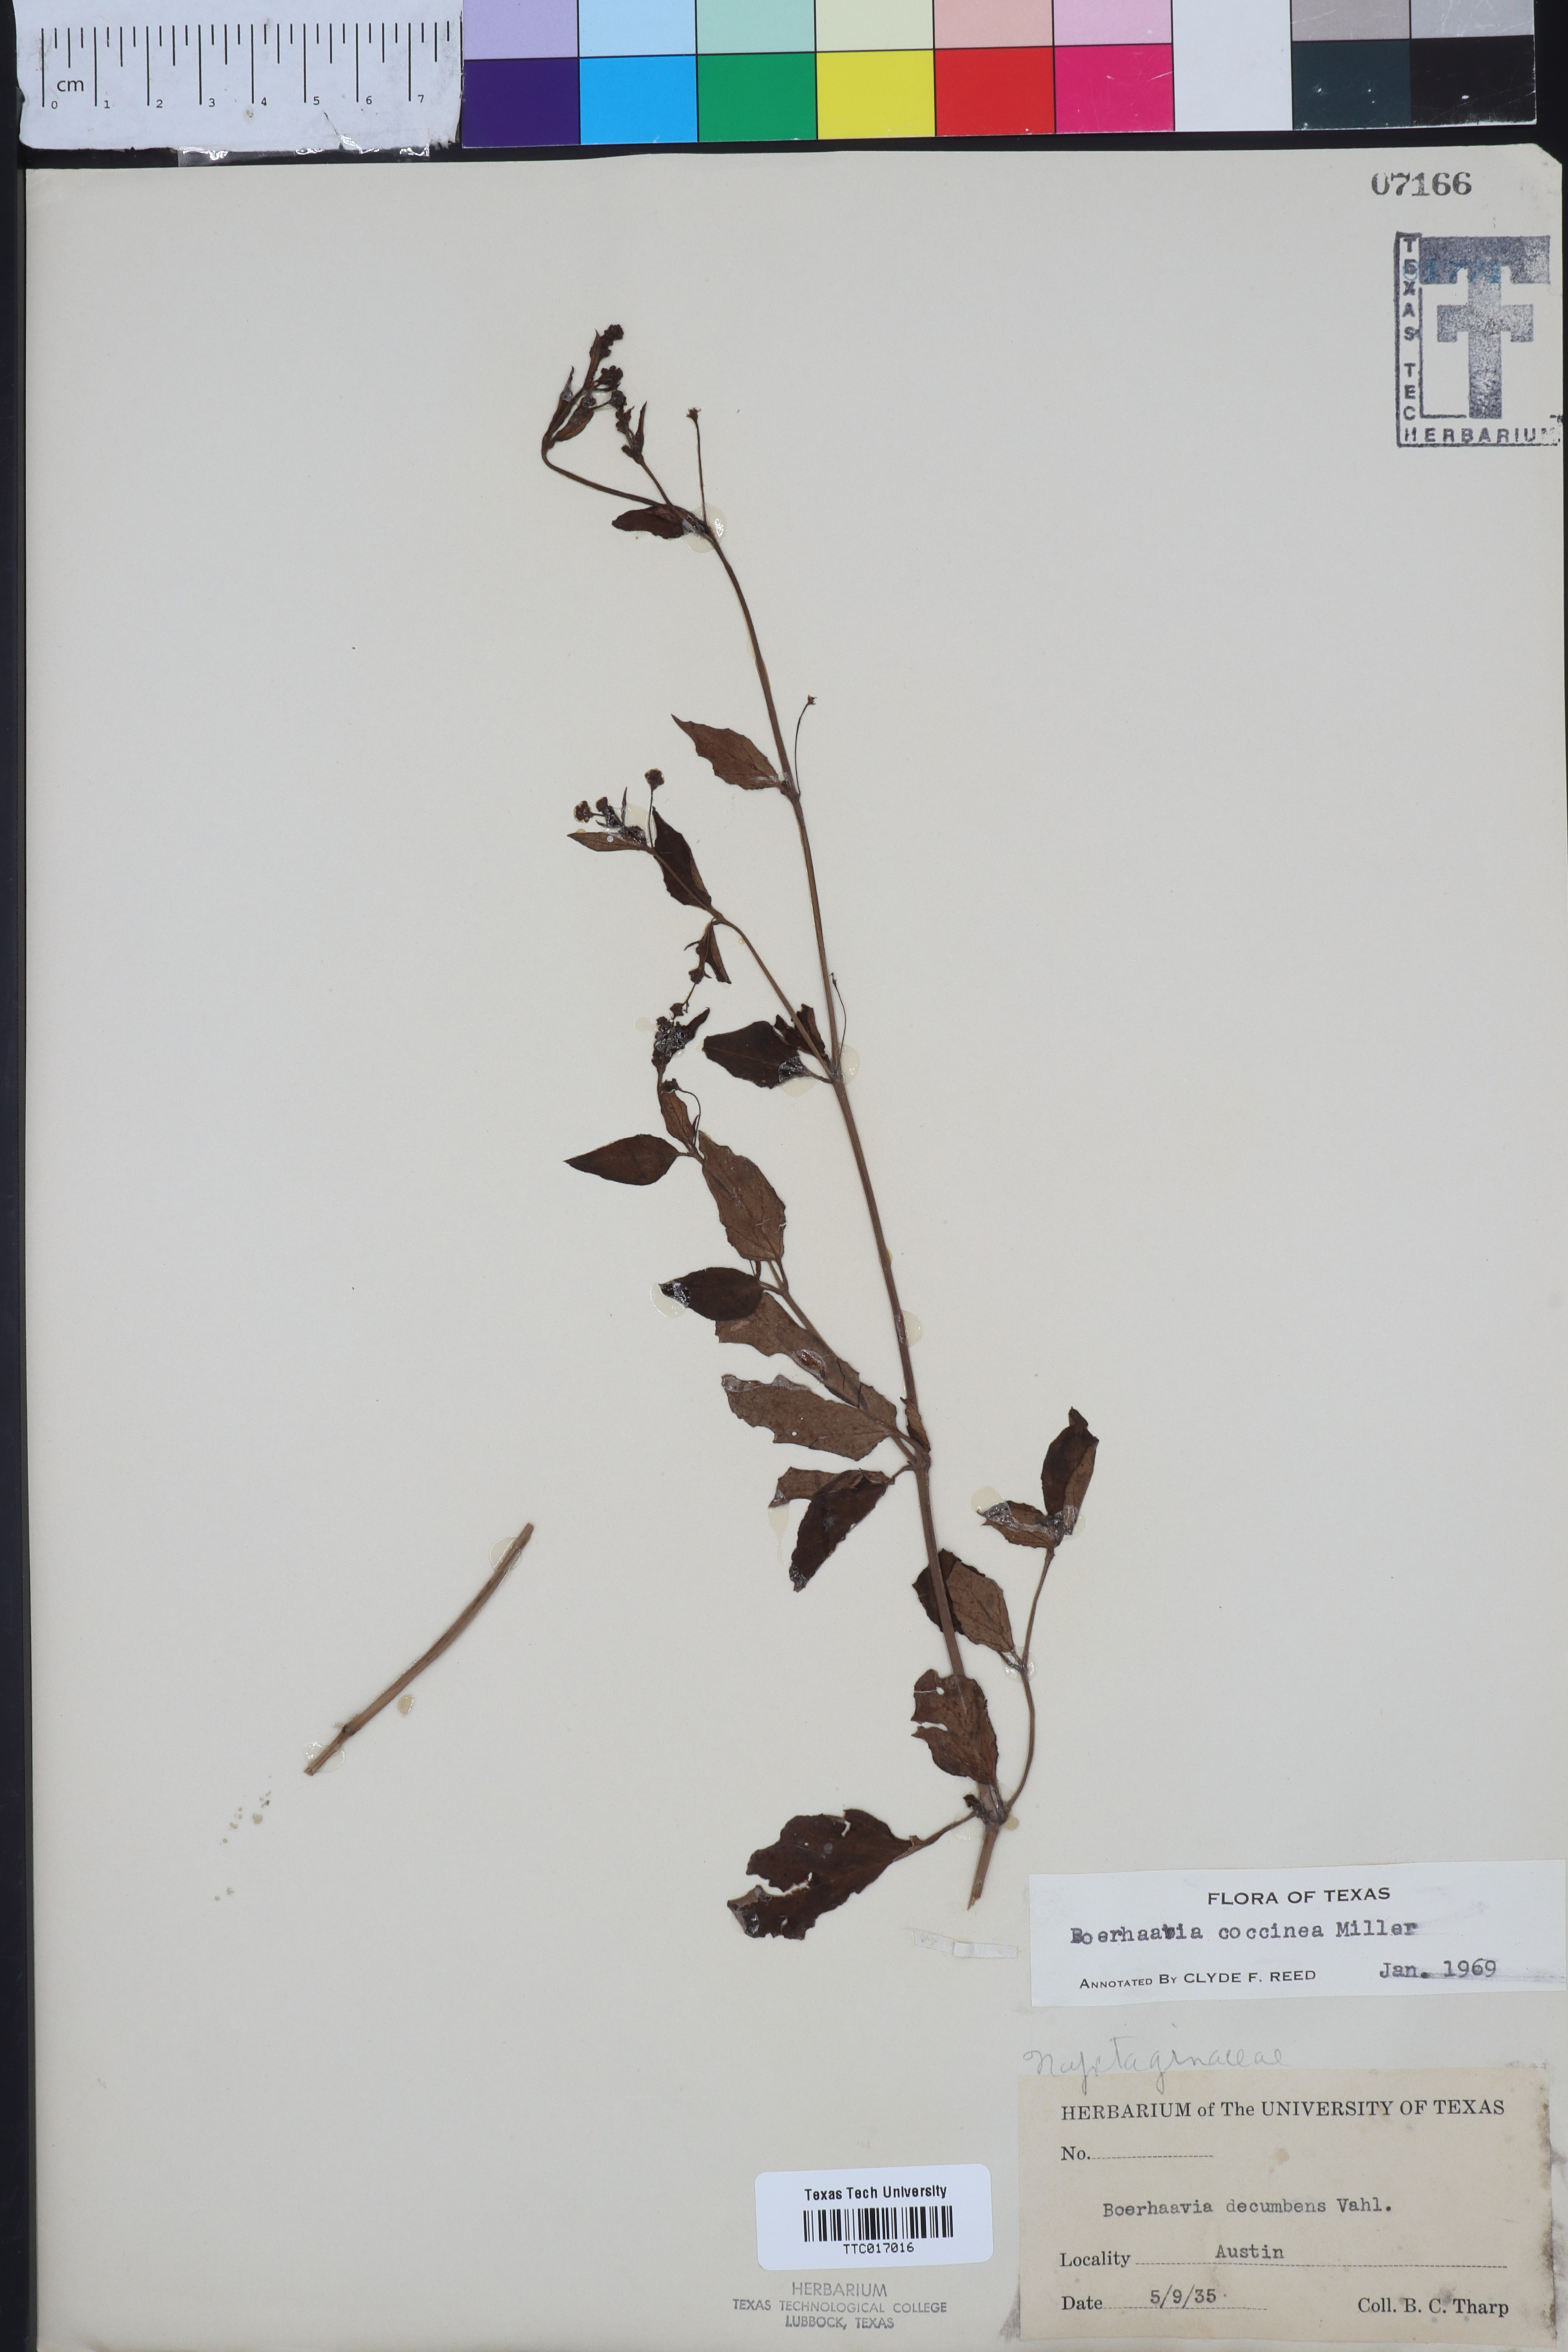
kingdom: Plantae
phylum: Tracheophyta
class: Magnoliopsida
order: Caryophyllales
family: Nyctaginaceae
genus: Boerhavia
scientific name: Boerhavia Boerhaavia coccinea
